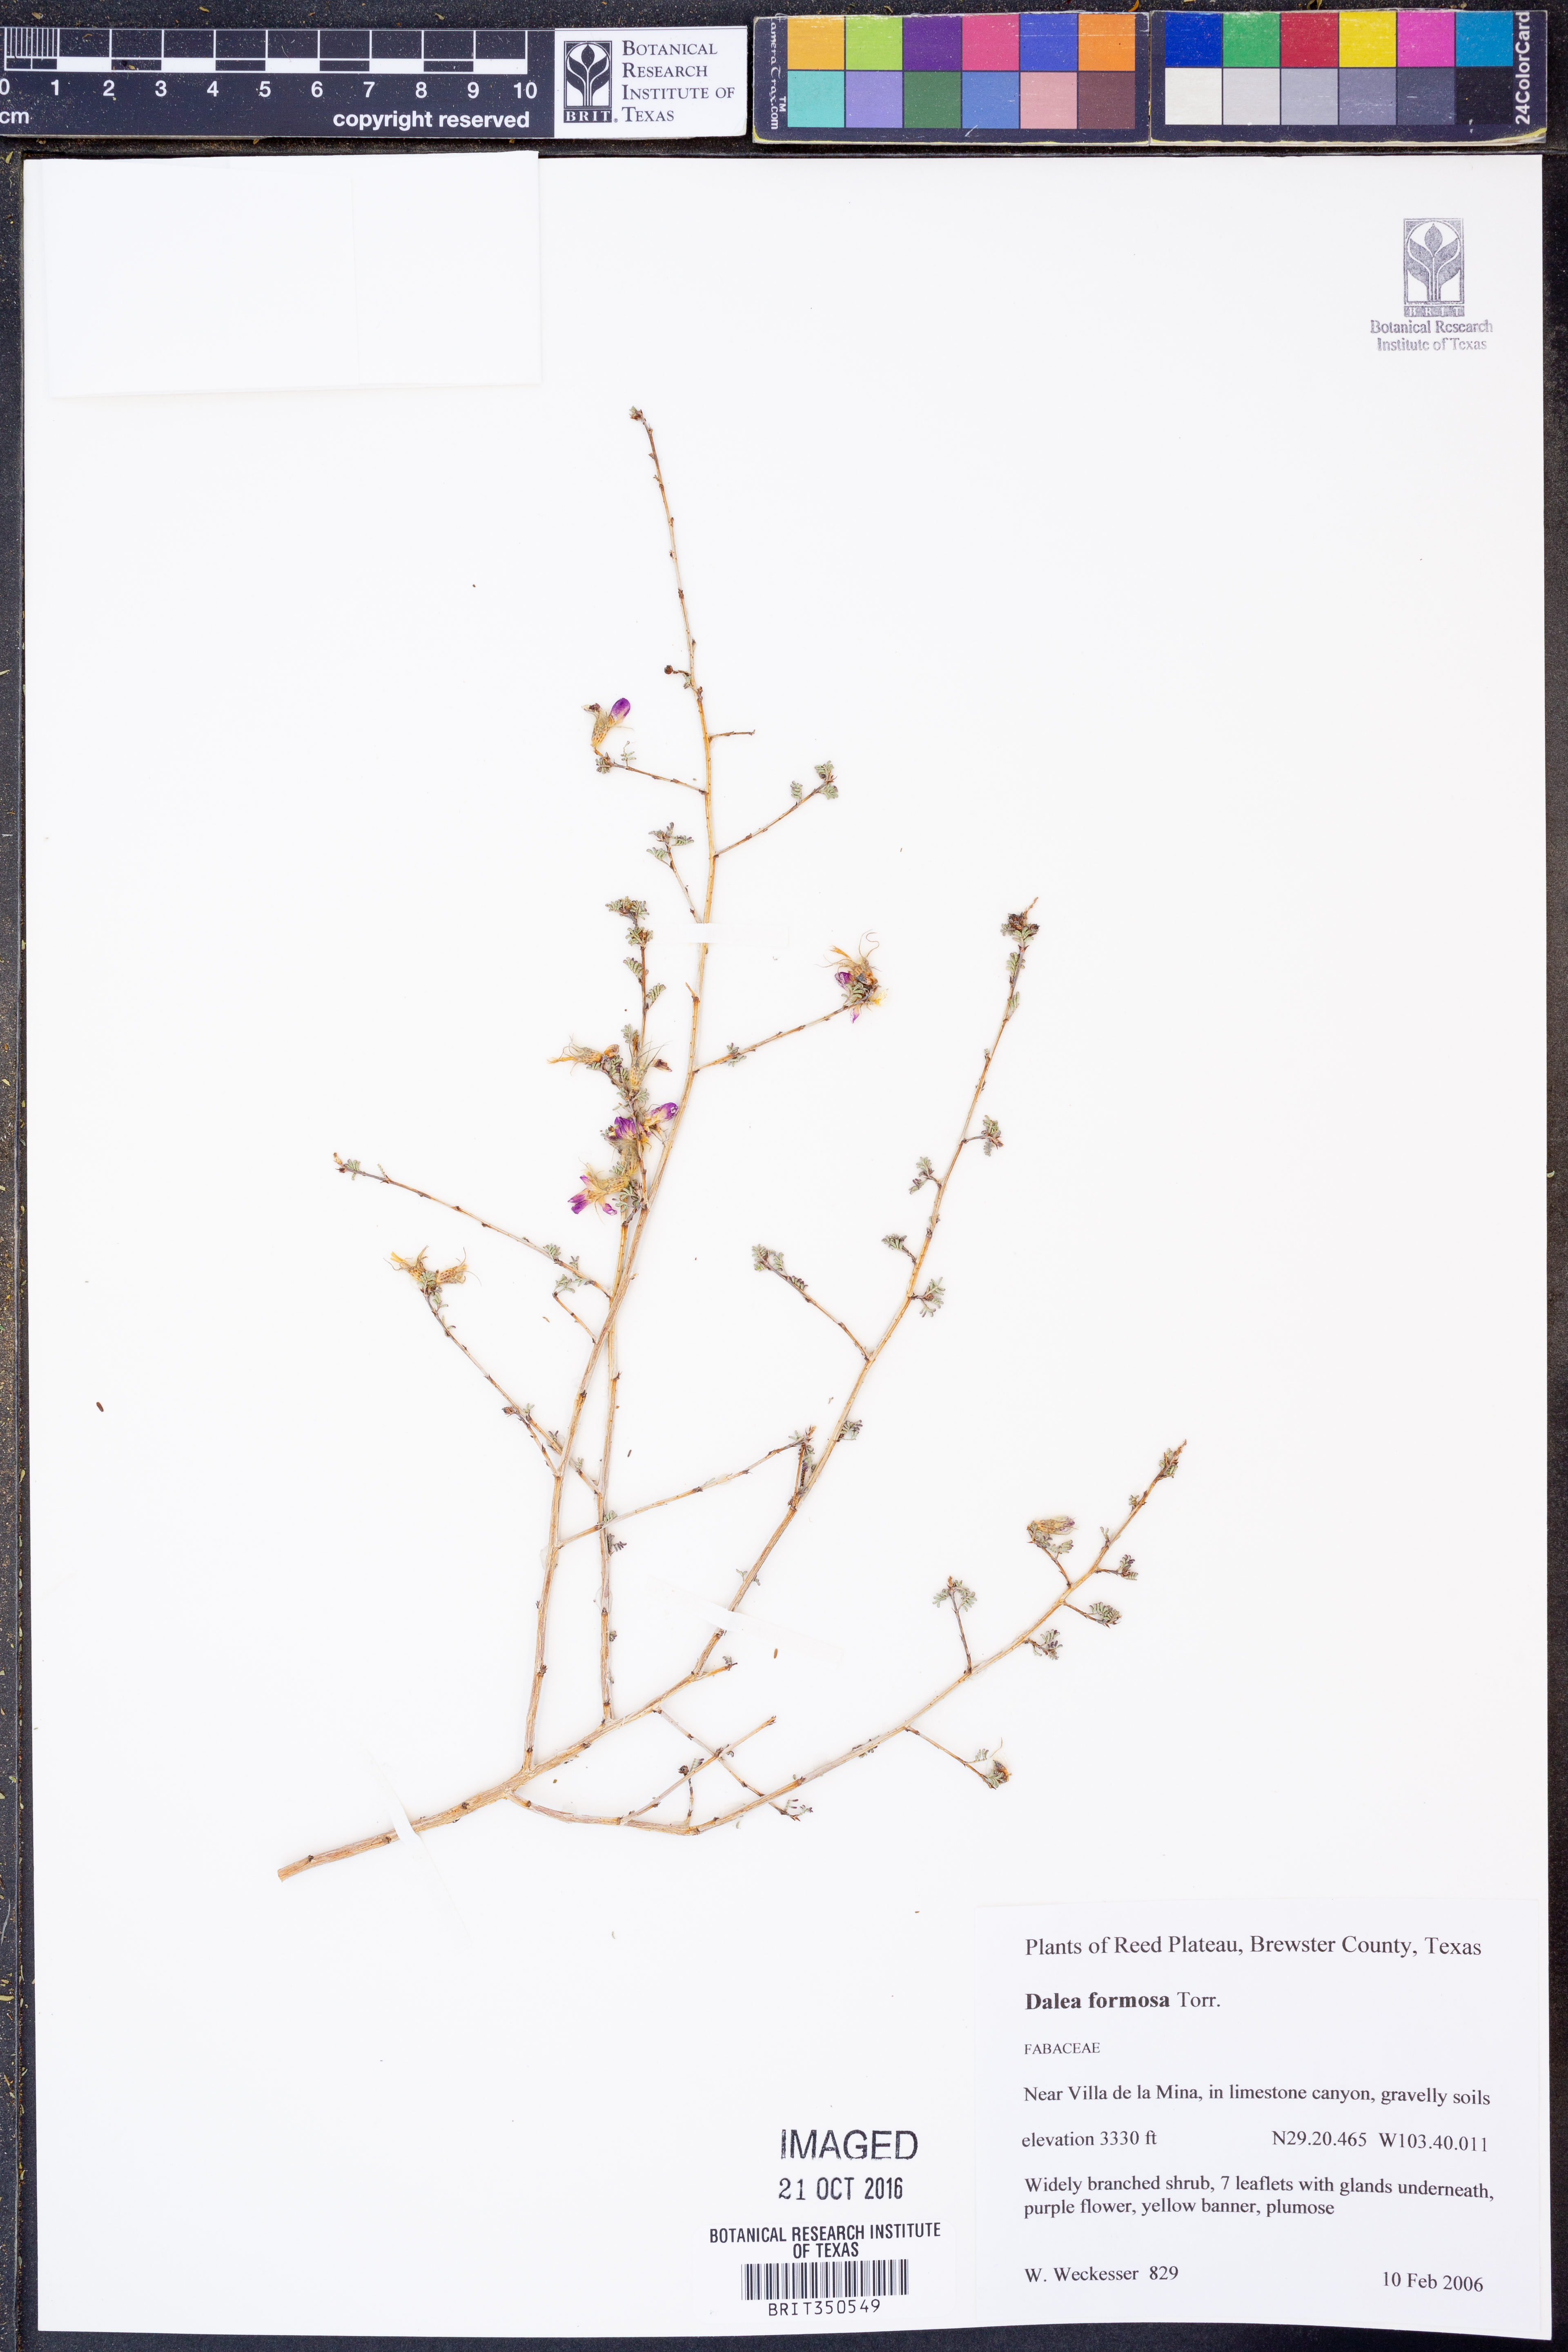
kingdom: Plantae
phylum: Tracheophyta
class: Magnoliopsida
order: Fabales
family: Fabaceae
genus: Dalea
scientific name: Dalea formosa
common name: Feather-plume dalea
